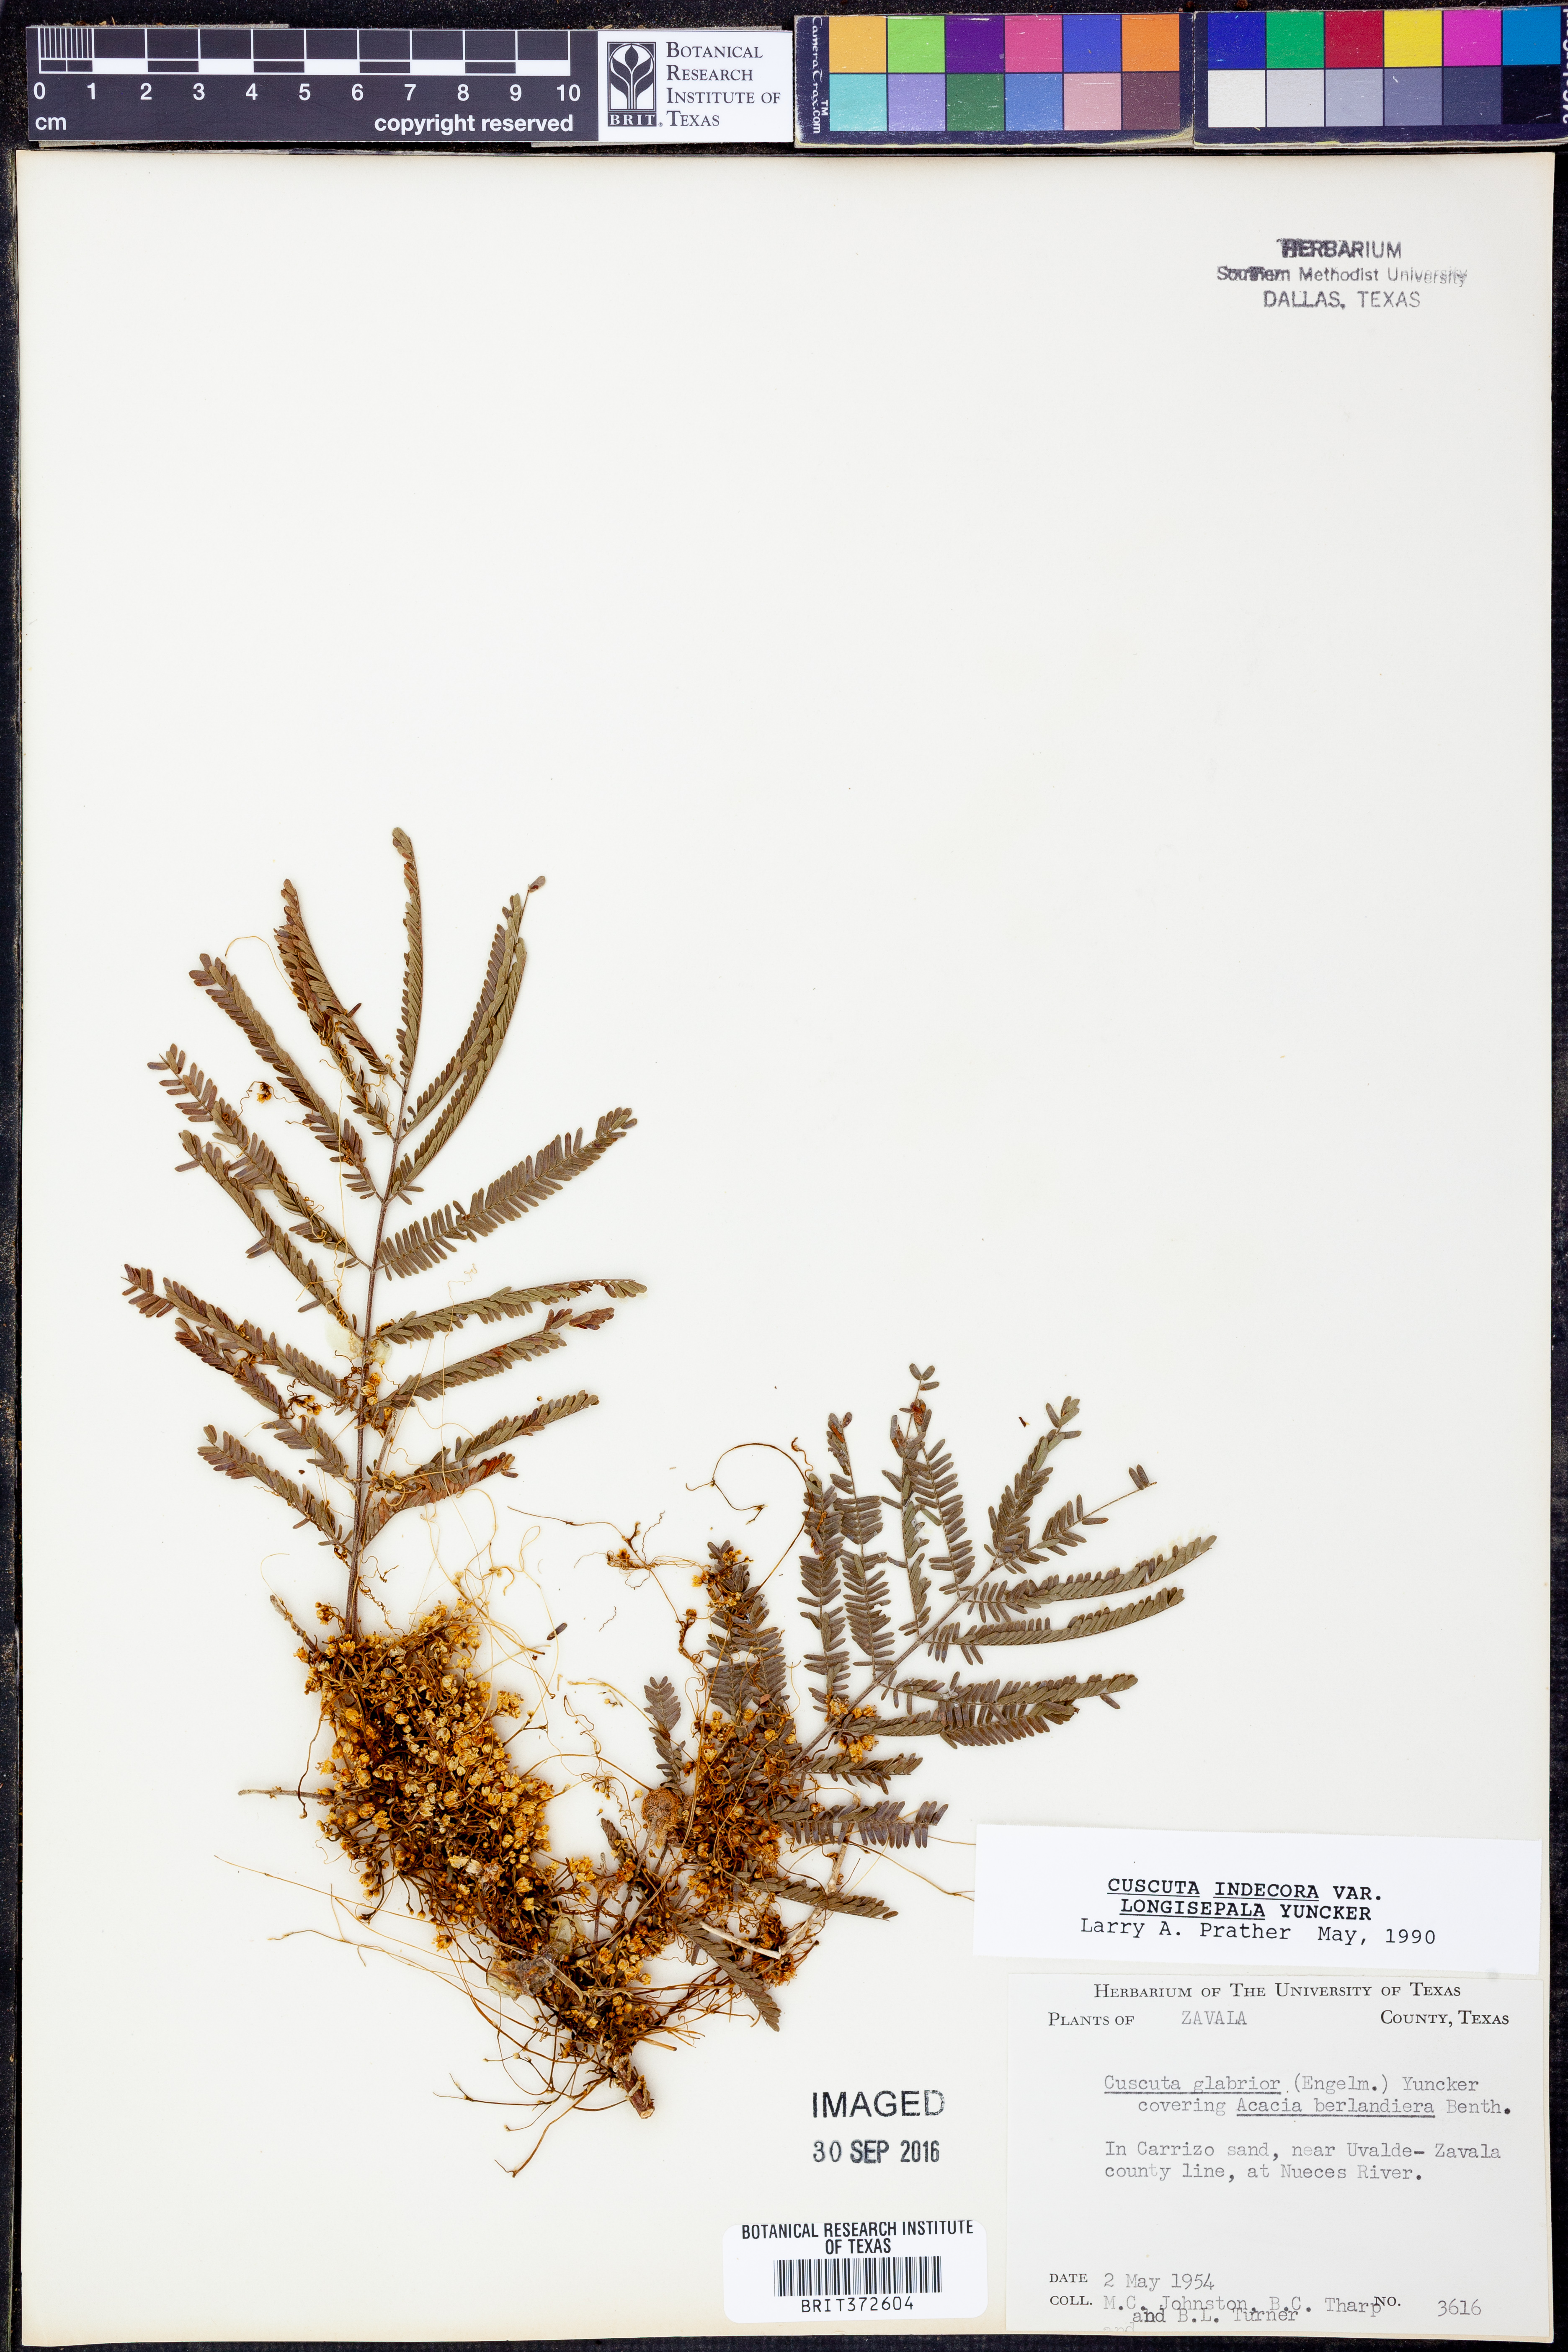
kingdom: Plantae
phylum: Tracheophyta
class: Magnoliopsida
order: Solanales
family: Convolvulaceae
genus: Cuscuta
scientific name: Cuscuta indecora
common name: Large-seed dodder
